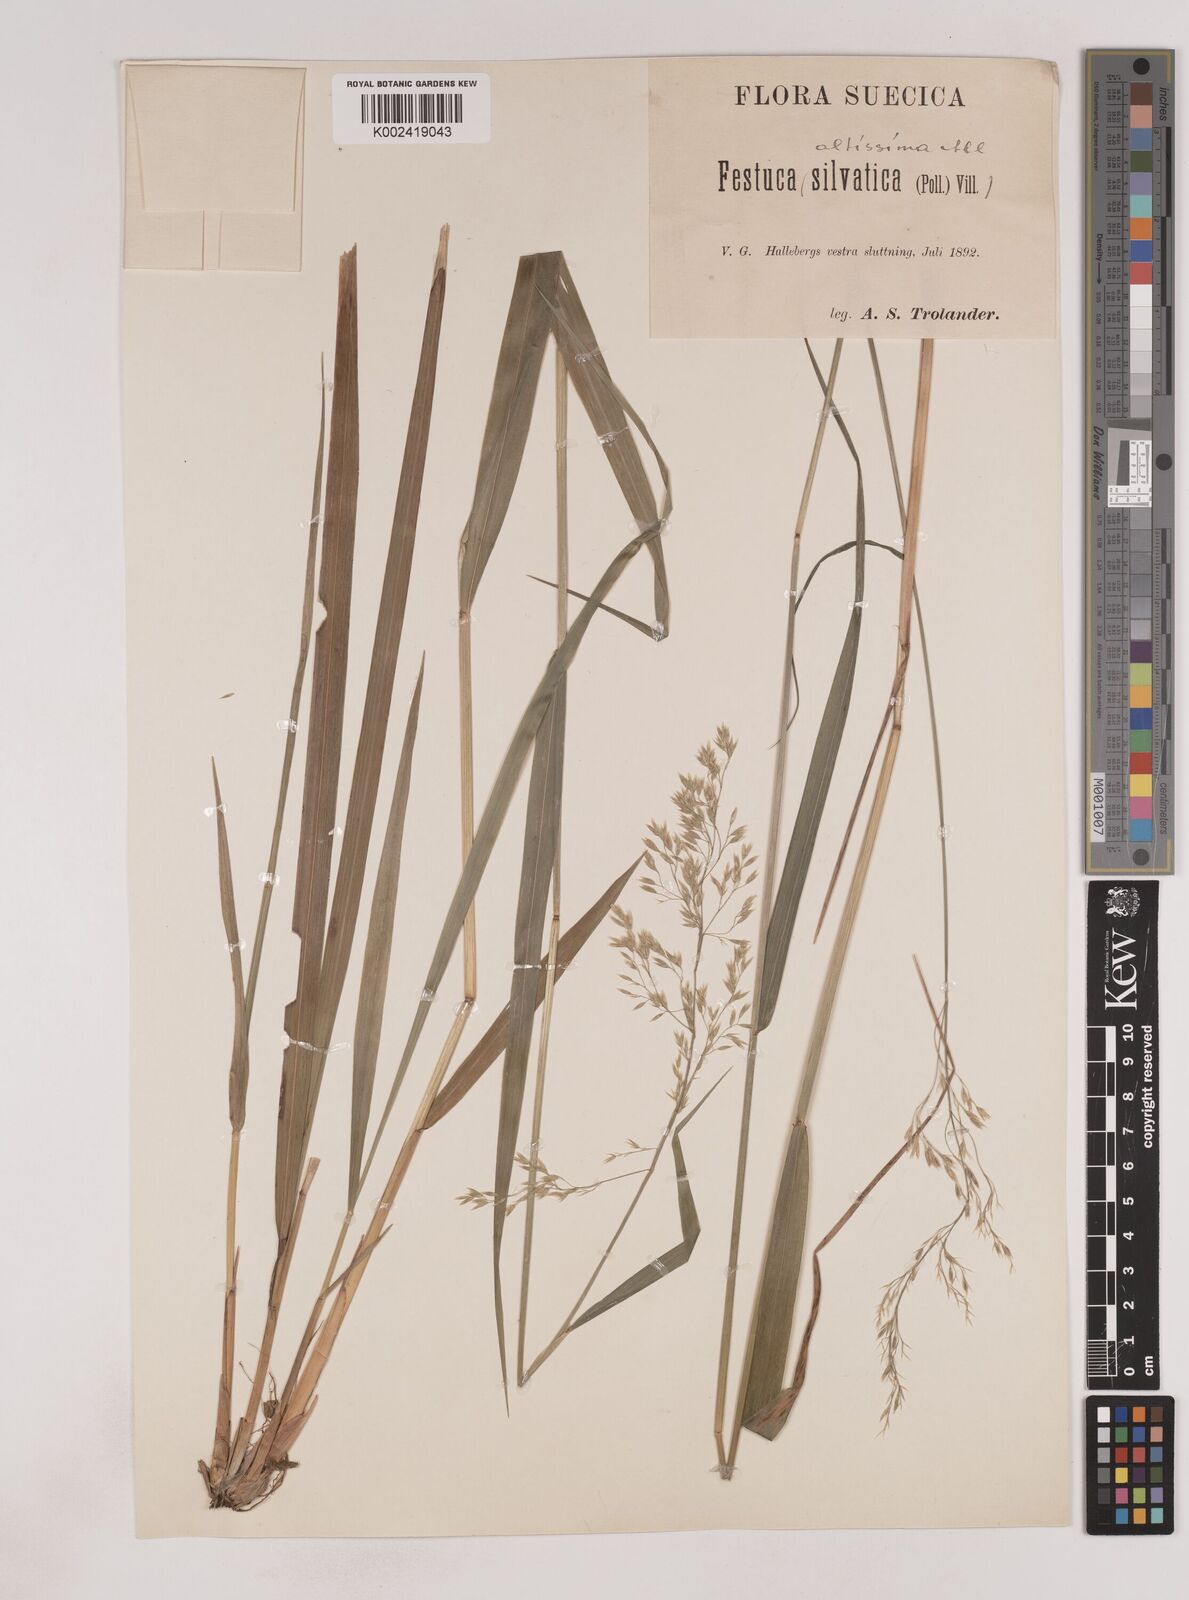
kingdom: Plantae
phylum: Tracheophyta
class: Liliopsida
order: Poales
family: Poaceae
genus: Festuca
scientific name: Festuca drymeja
